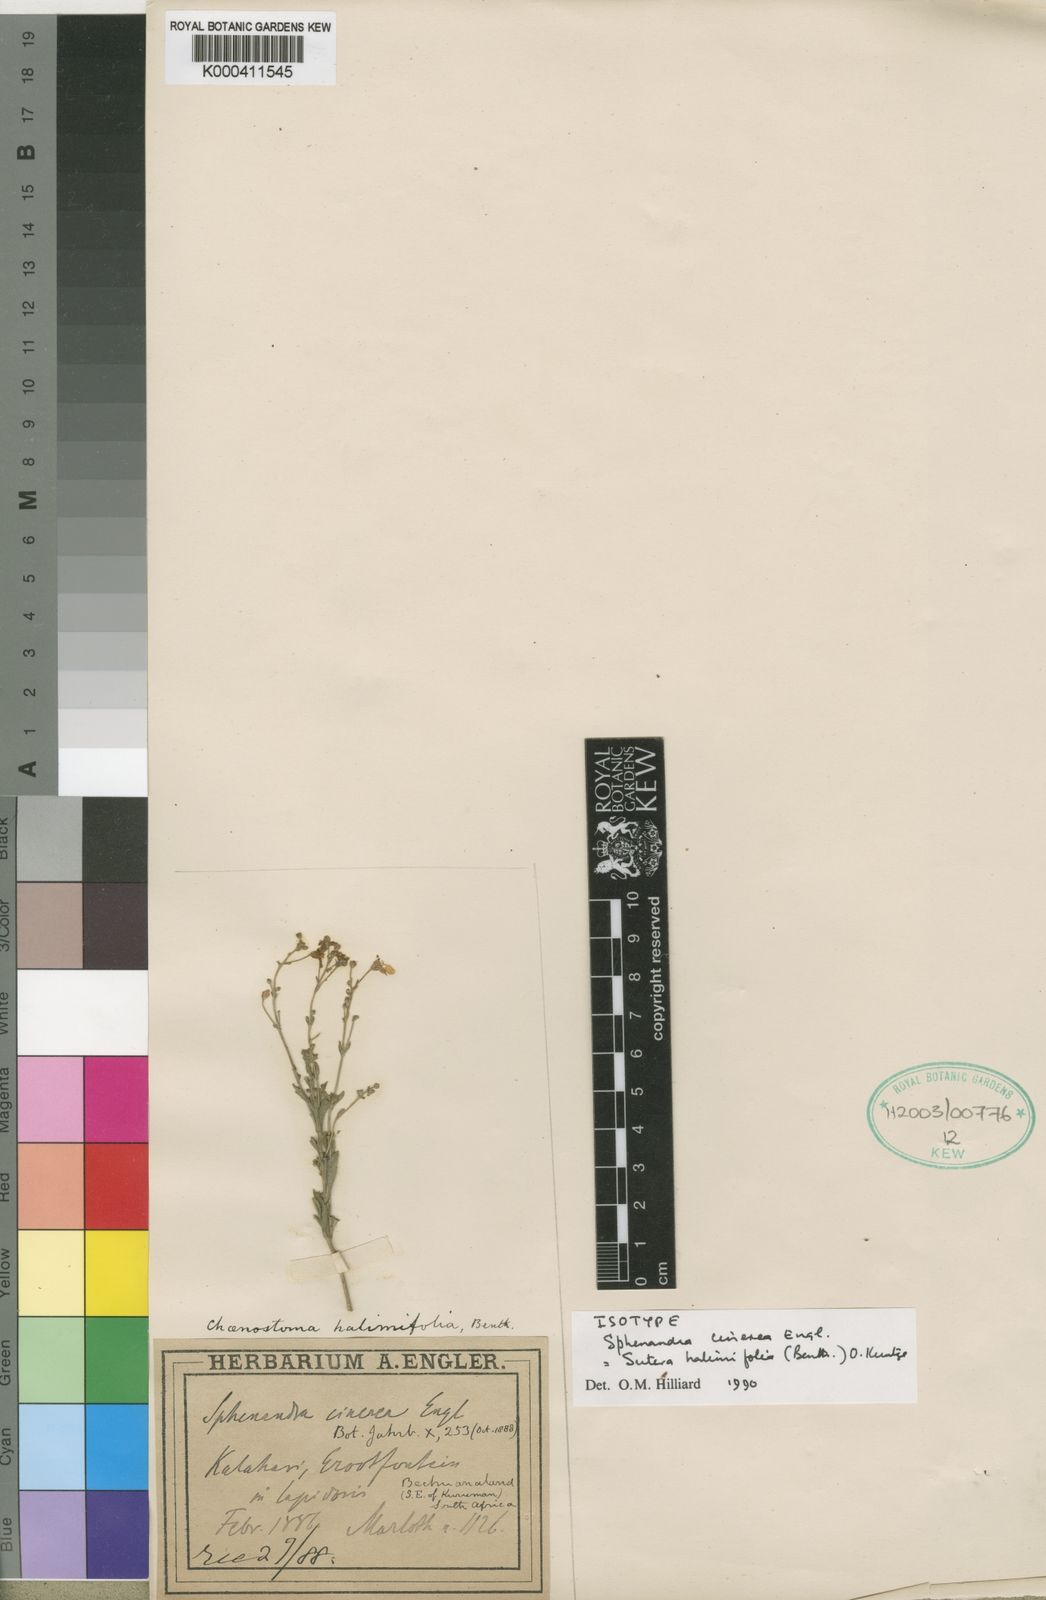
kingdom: Plantae
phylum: Tracheophyta
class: Magnoliopsida
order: Lamiales
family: Scrophulariaceae
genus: Chaenostoma
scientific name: Chaenostoma halimifolium
